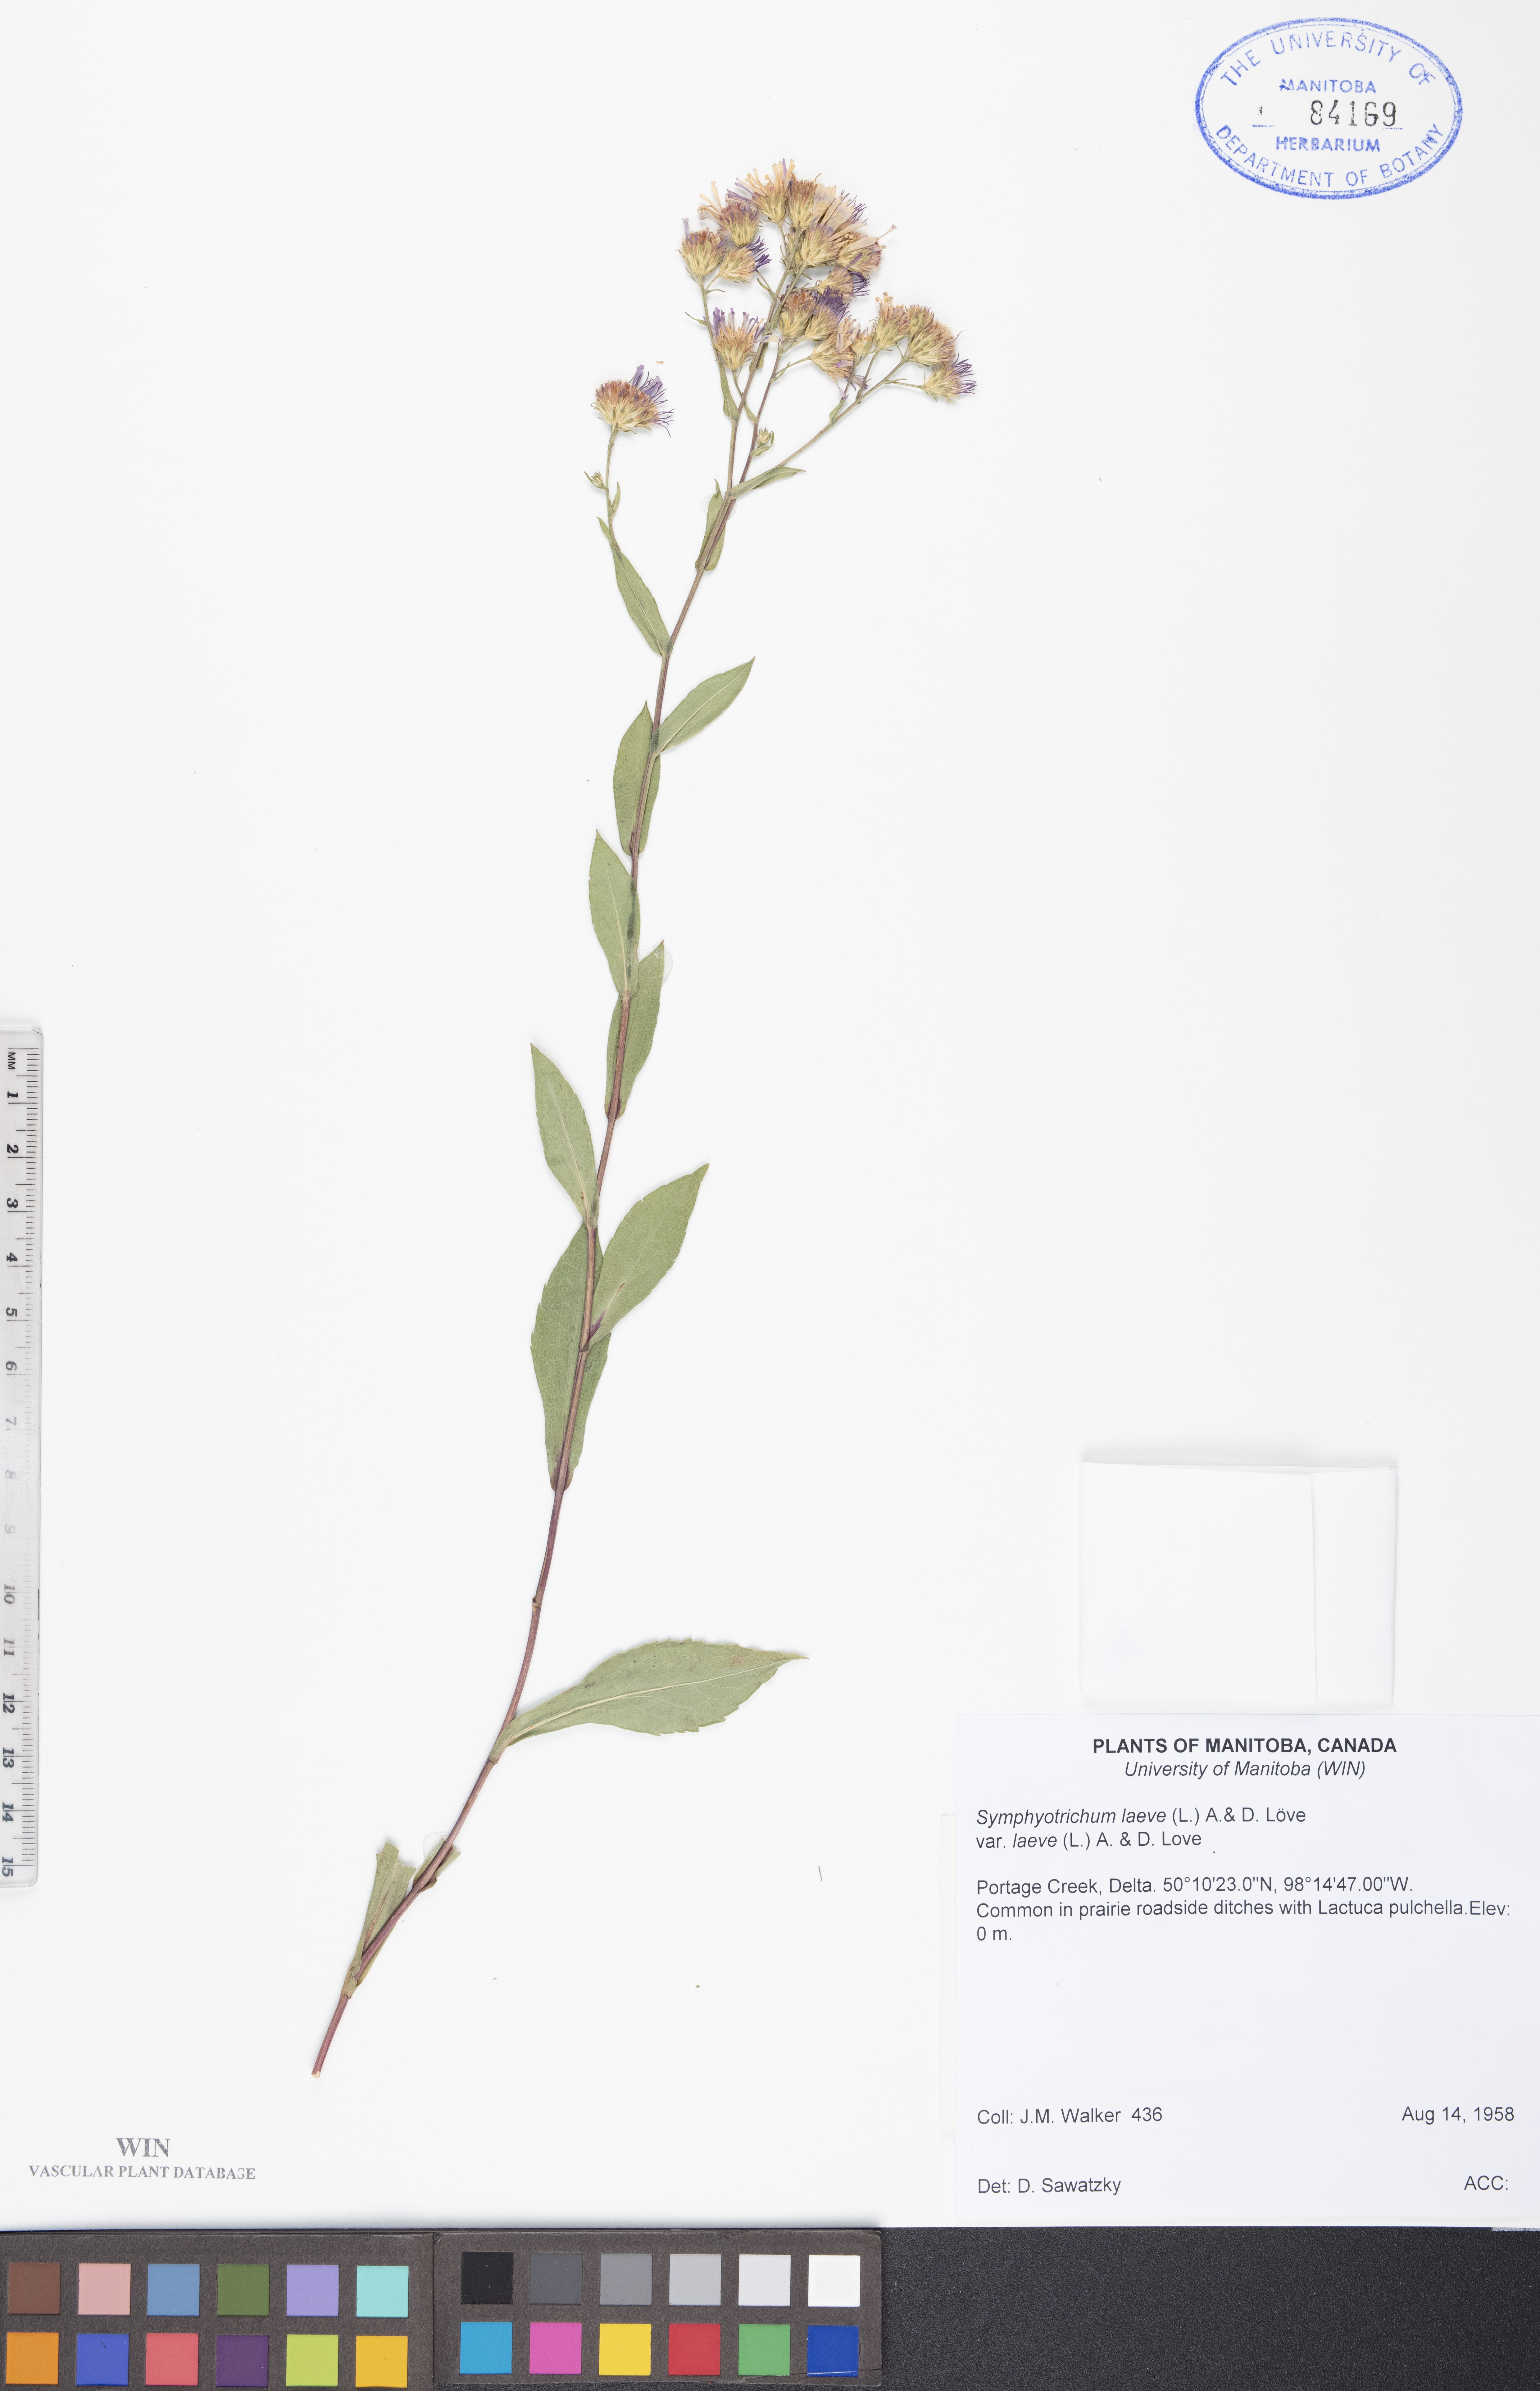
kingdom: Plantae
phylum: Tracheophyta
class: Magnoliopsida
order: Asterales
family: Asteraceae
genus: Symphyotrichum
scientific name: Symphyotrichum laeve
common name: Glaucous aster
